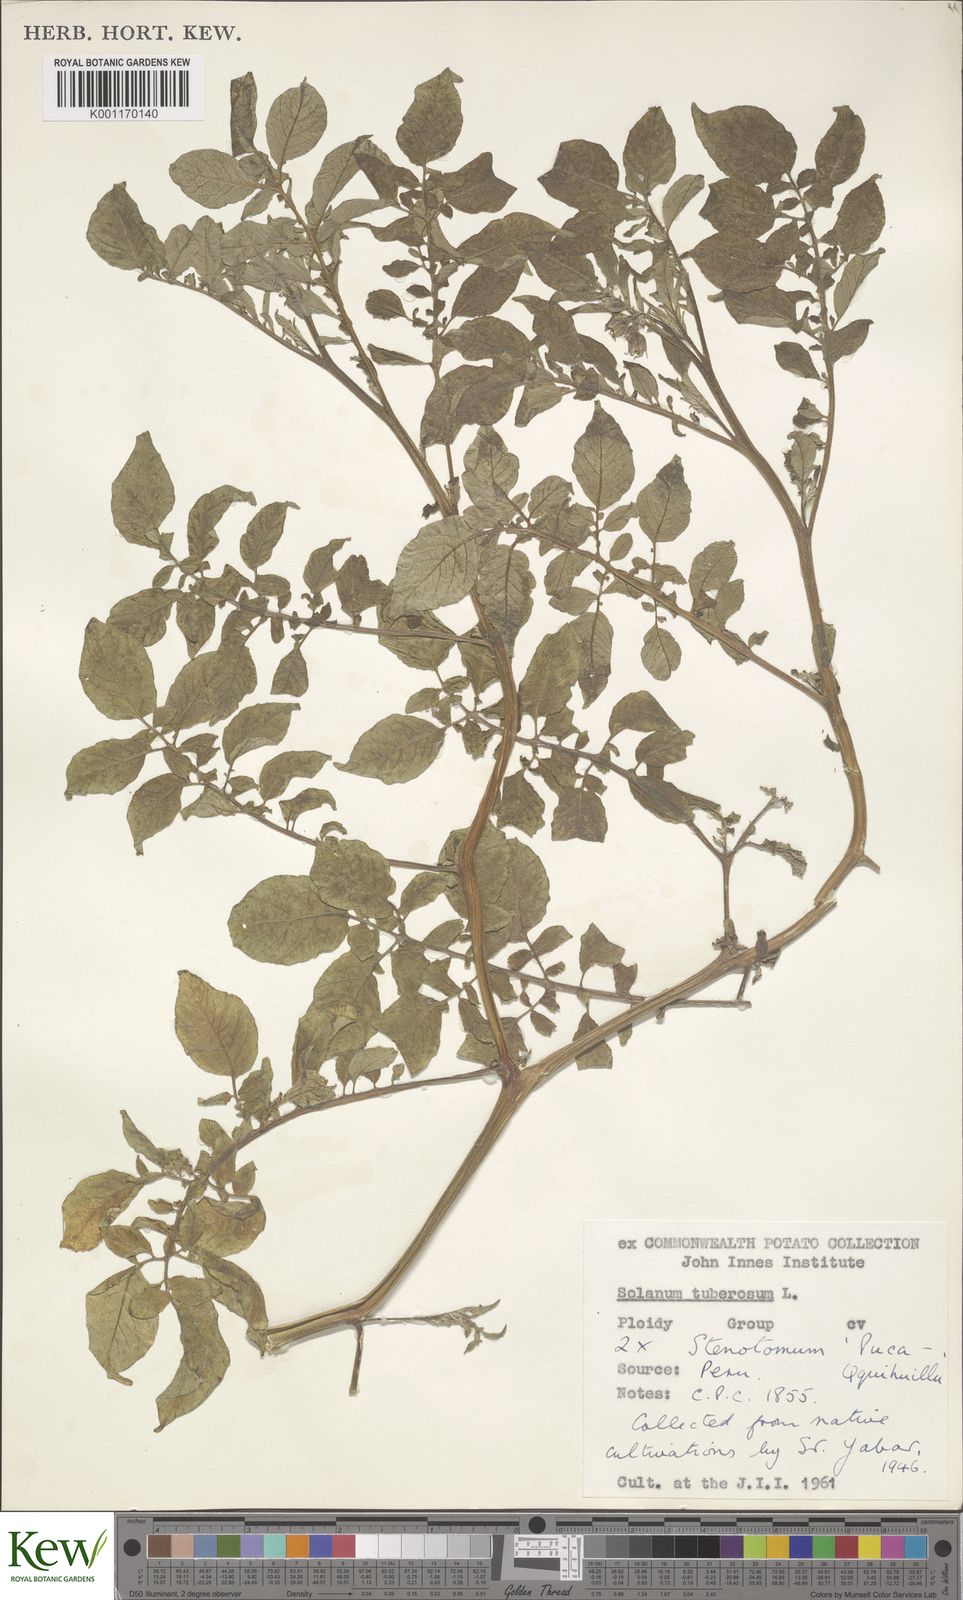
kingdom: Plantae
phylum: Tracheophyta
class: Magnoliopsida
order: Solanales
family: Solanaceae
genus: Solanum
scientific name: Solanum tuberosum
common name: Potato
